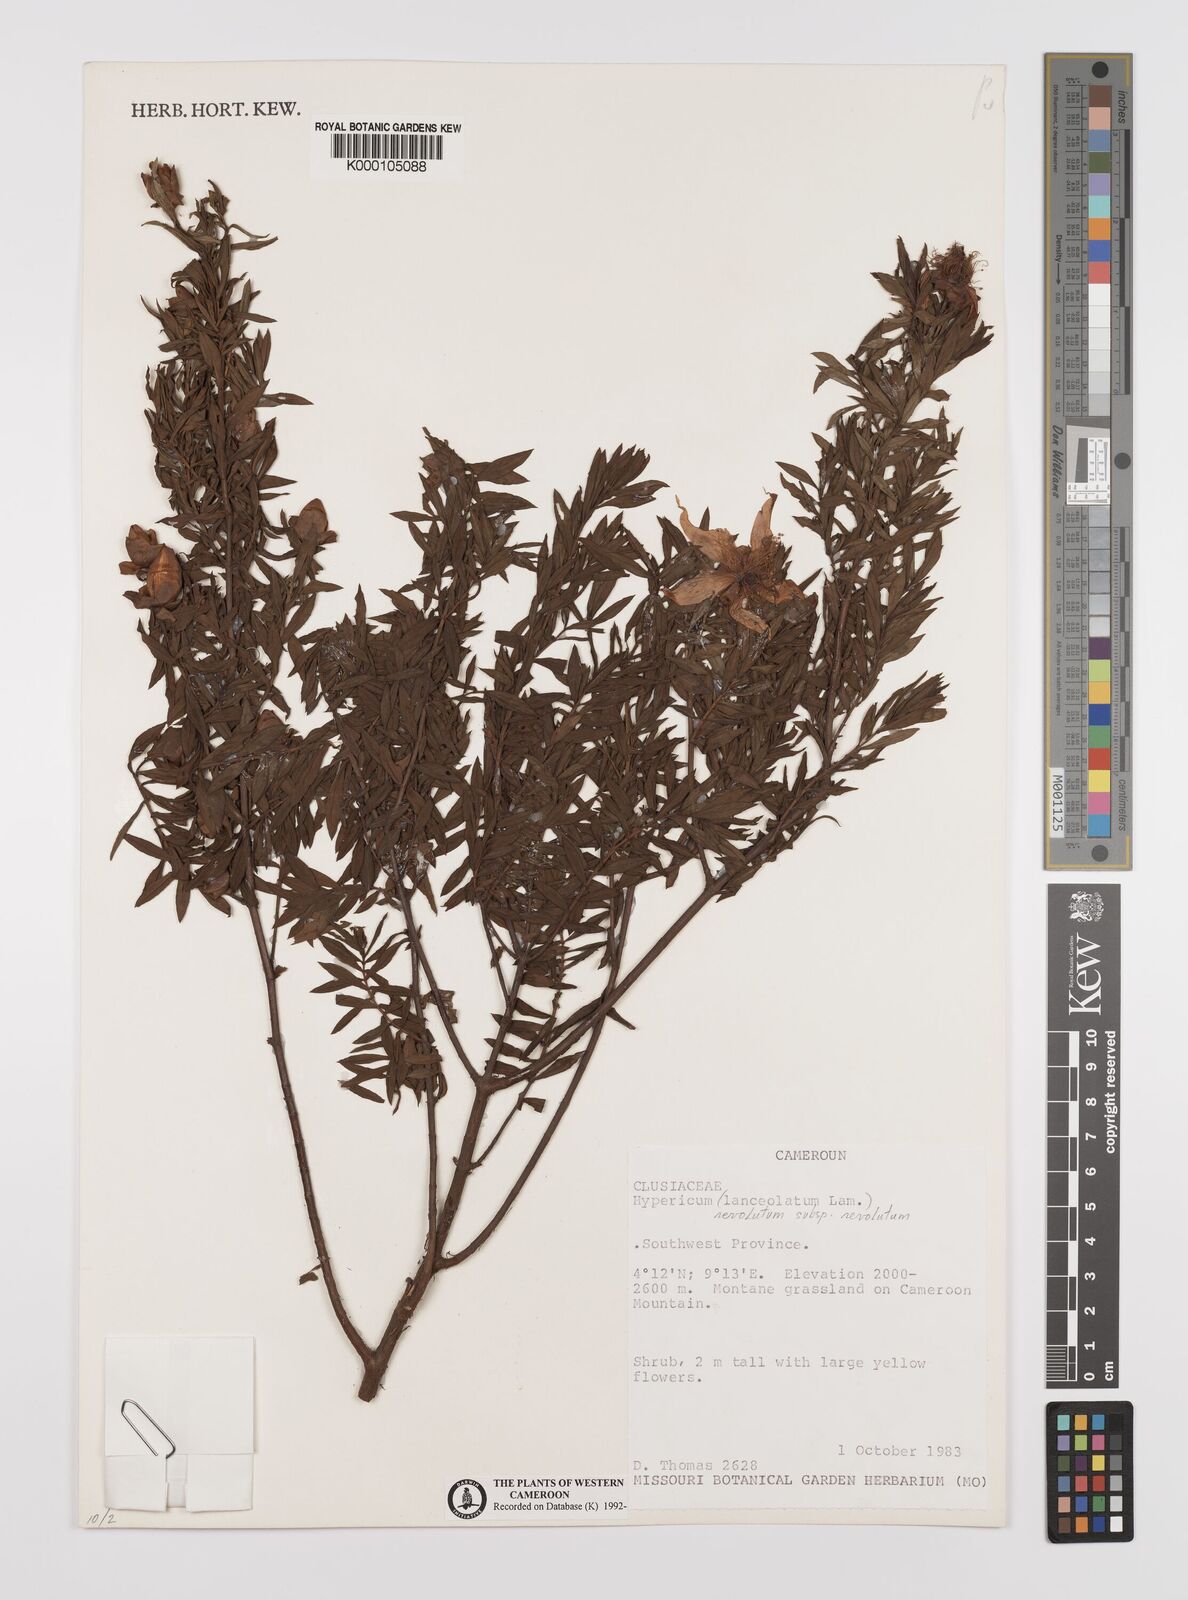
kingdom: Plantae
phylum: Tracheophyta
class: Magnoliopsida
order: Malpighiales
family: Hypericaceae
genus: Hypericum
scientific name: Hypericum revolutum
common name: Curry bush
